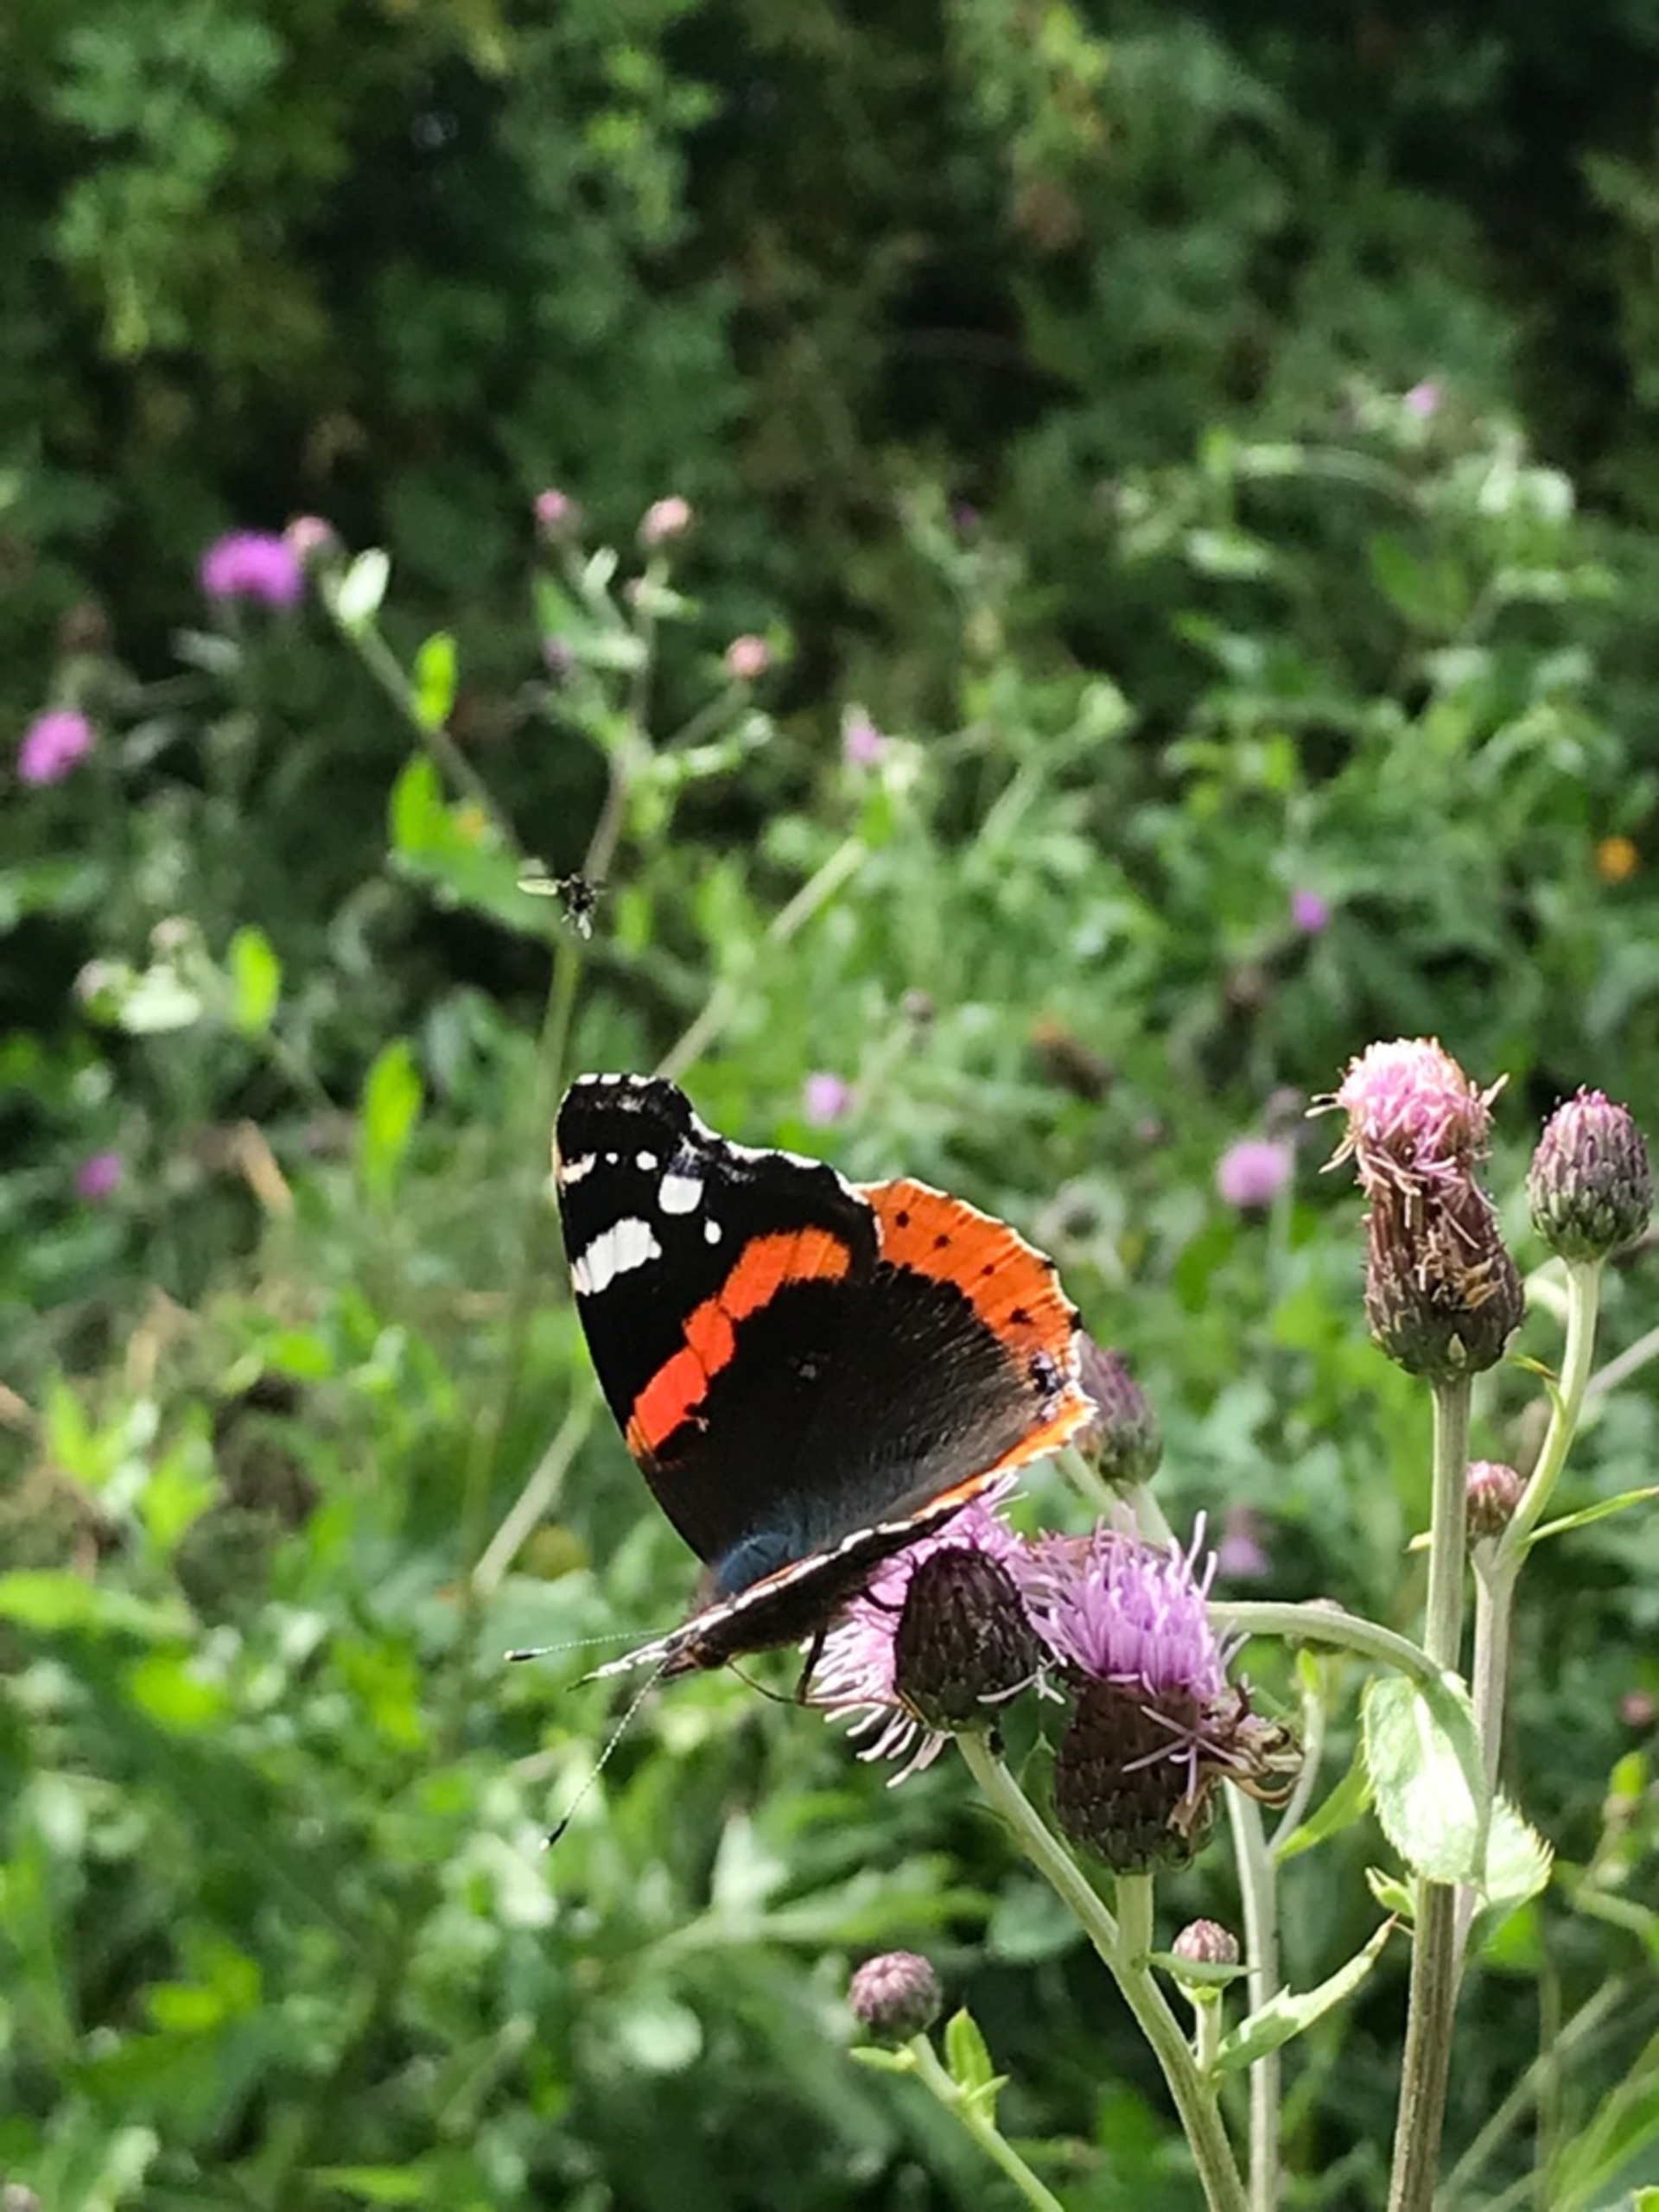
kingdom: Animalia
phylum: Arthropoda
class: Insecta
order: Lepidoptera
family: Nymphalidae
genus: Vanessa
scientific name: Vanessa atalanta
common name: Admiral
